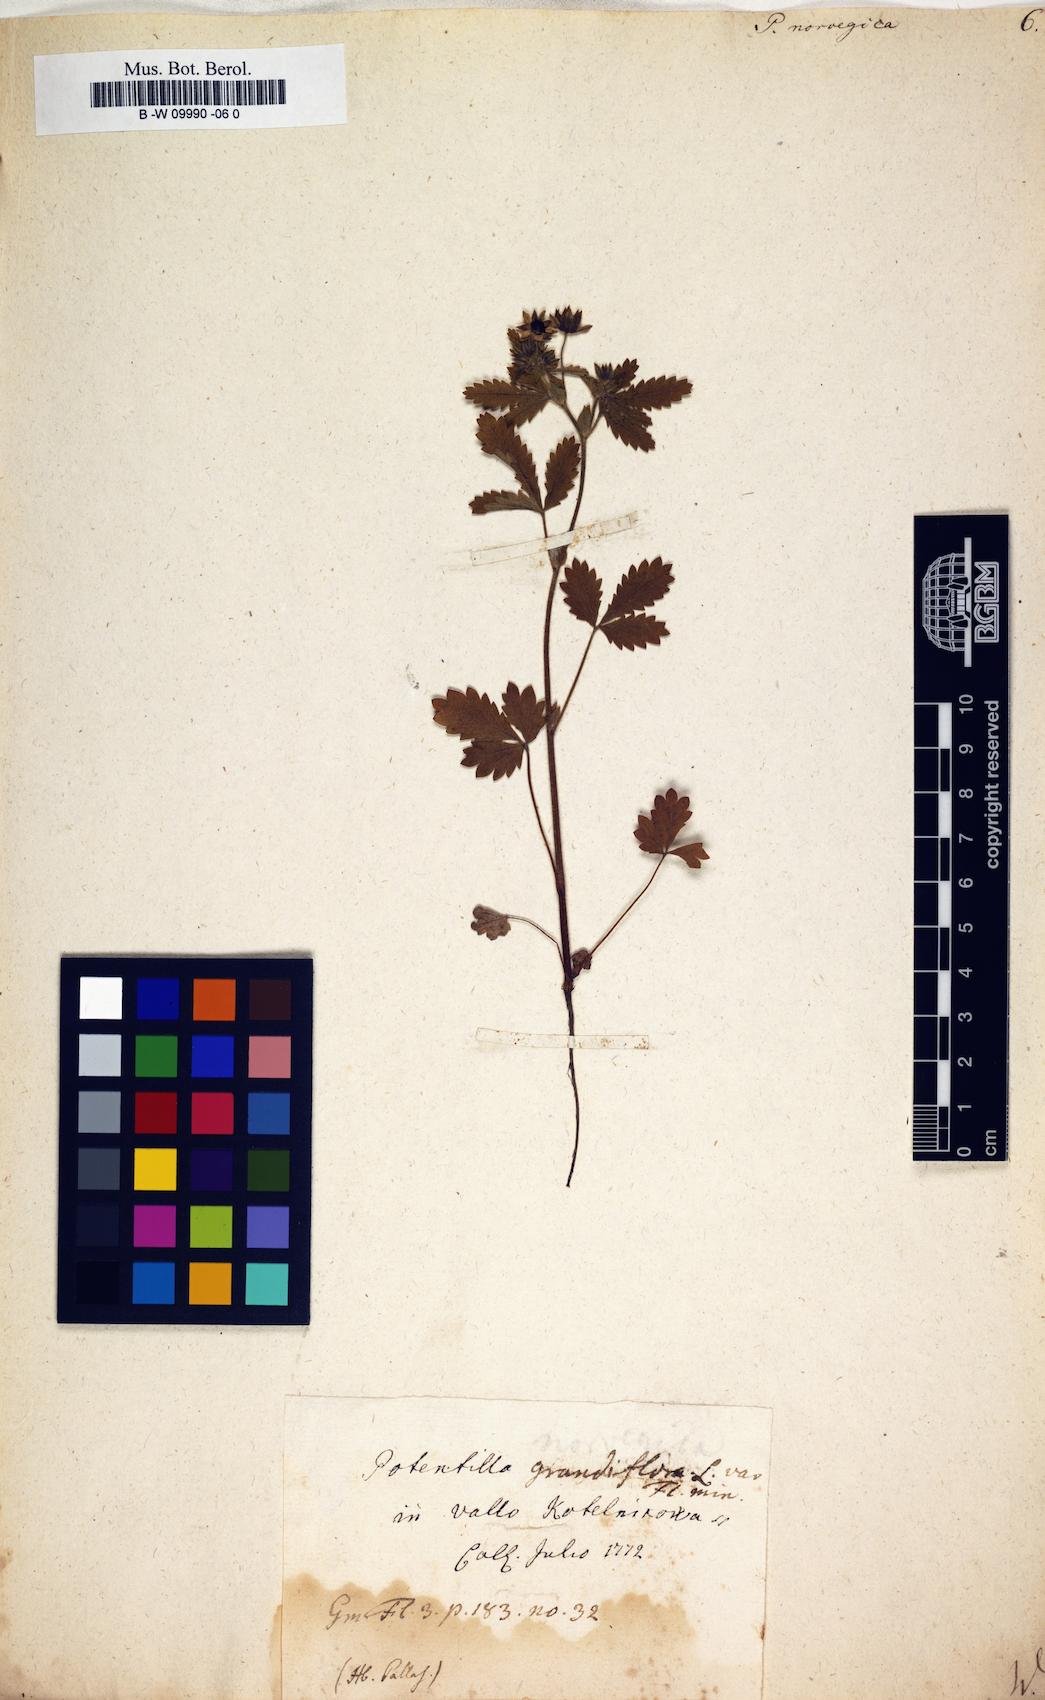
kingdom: Plantae
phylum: Tracheophyta
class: Magnoliopsida
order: Rosales
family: Rosaceae
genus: Potentilla
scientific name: Potentilla norvegica
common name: Ternate-leaved cinquefoil
